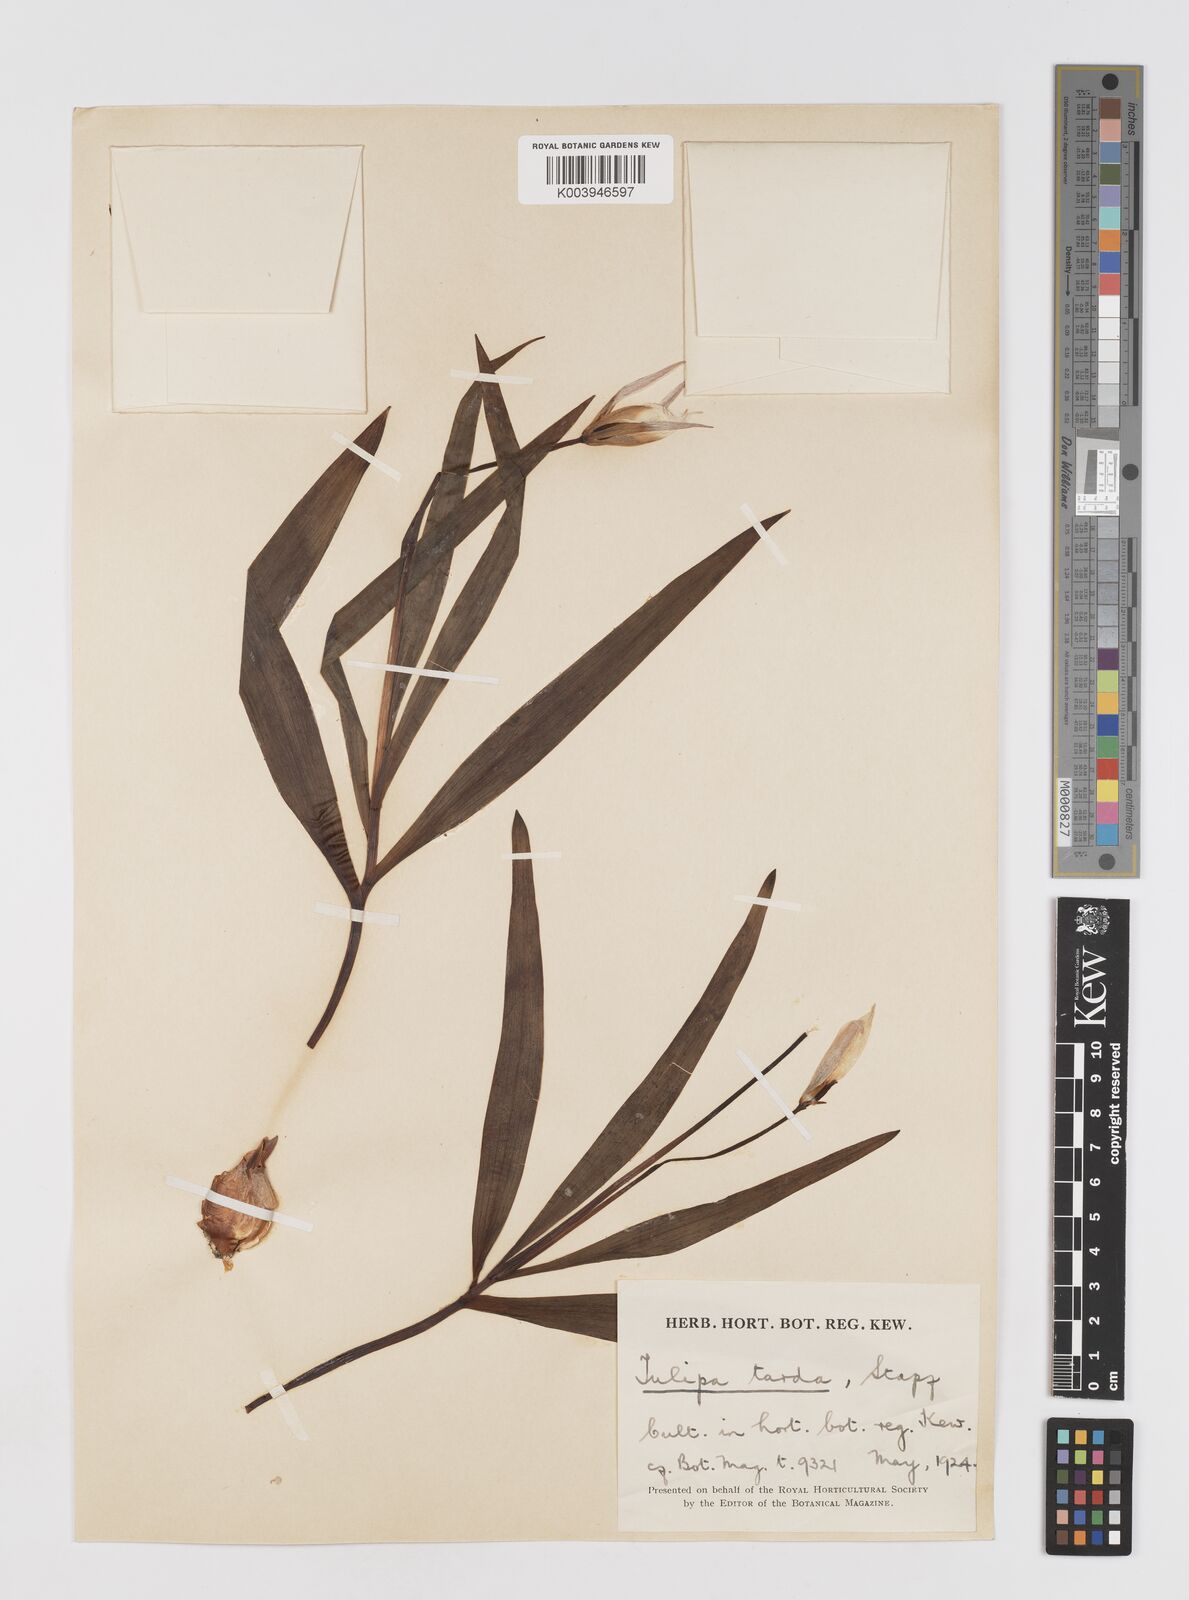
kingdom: Plantae
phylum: Tracheophyta
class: Liliopsida
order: Liliales
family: Liliaceae
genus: Tulipa
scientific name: Tulipa urumiensis
